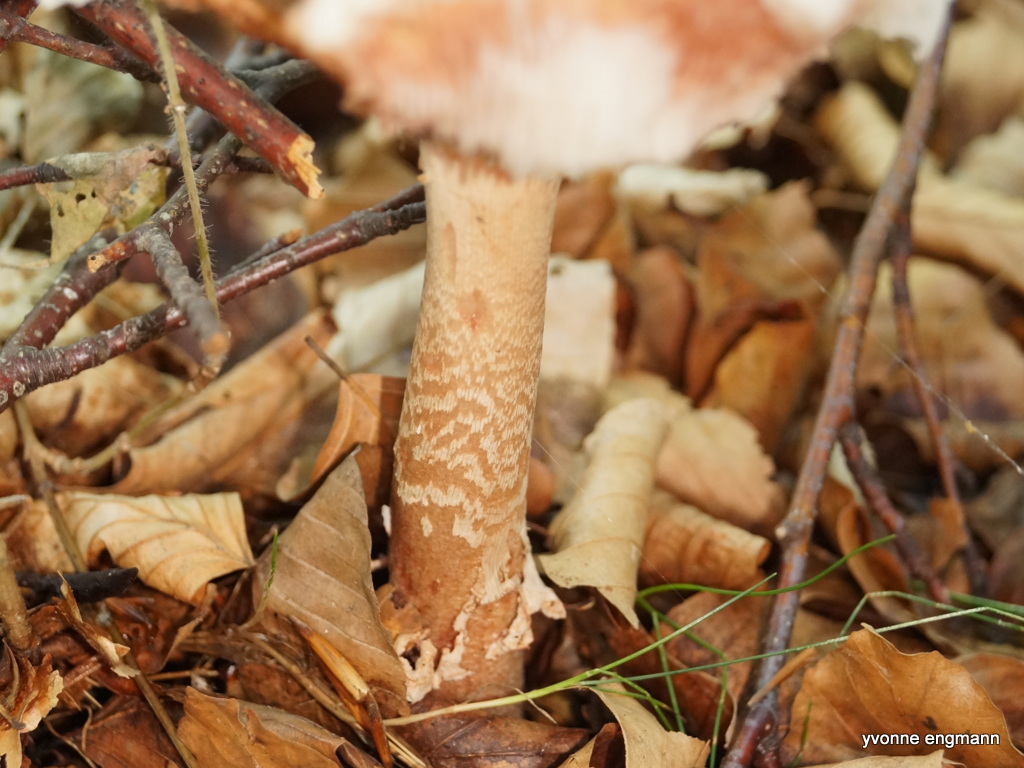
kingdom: Fungi
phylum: Basidiomycota
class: Agaricomycetes
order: Agaricales
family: Amanitaceae
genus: Amanita
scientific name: Amanita rubescens
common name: rødmende fluesvamp
